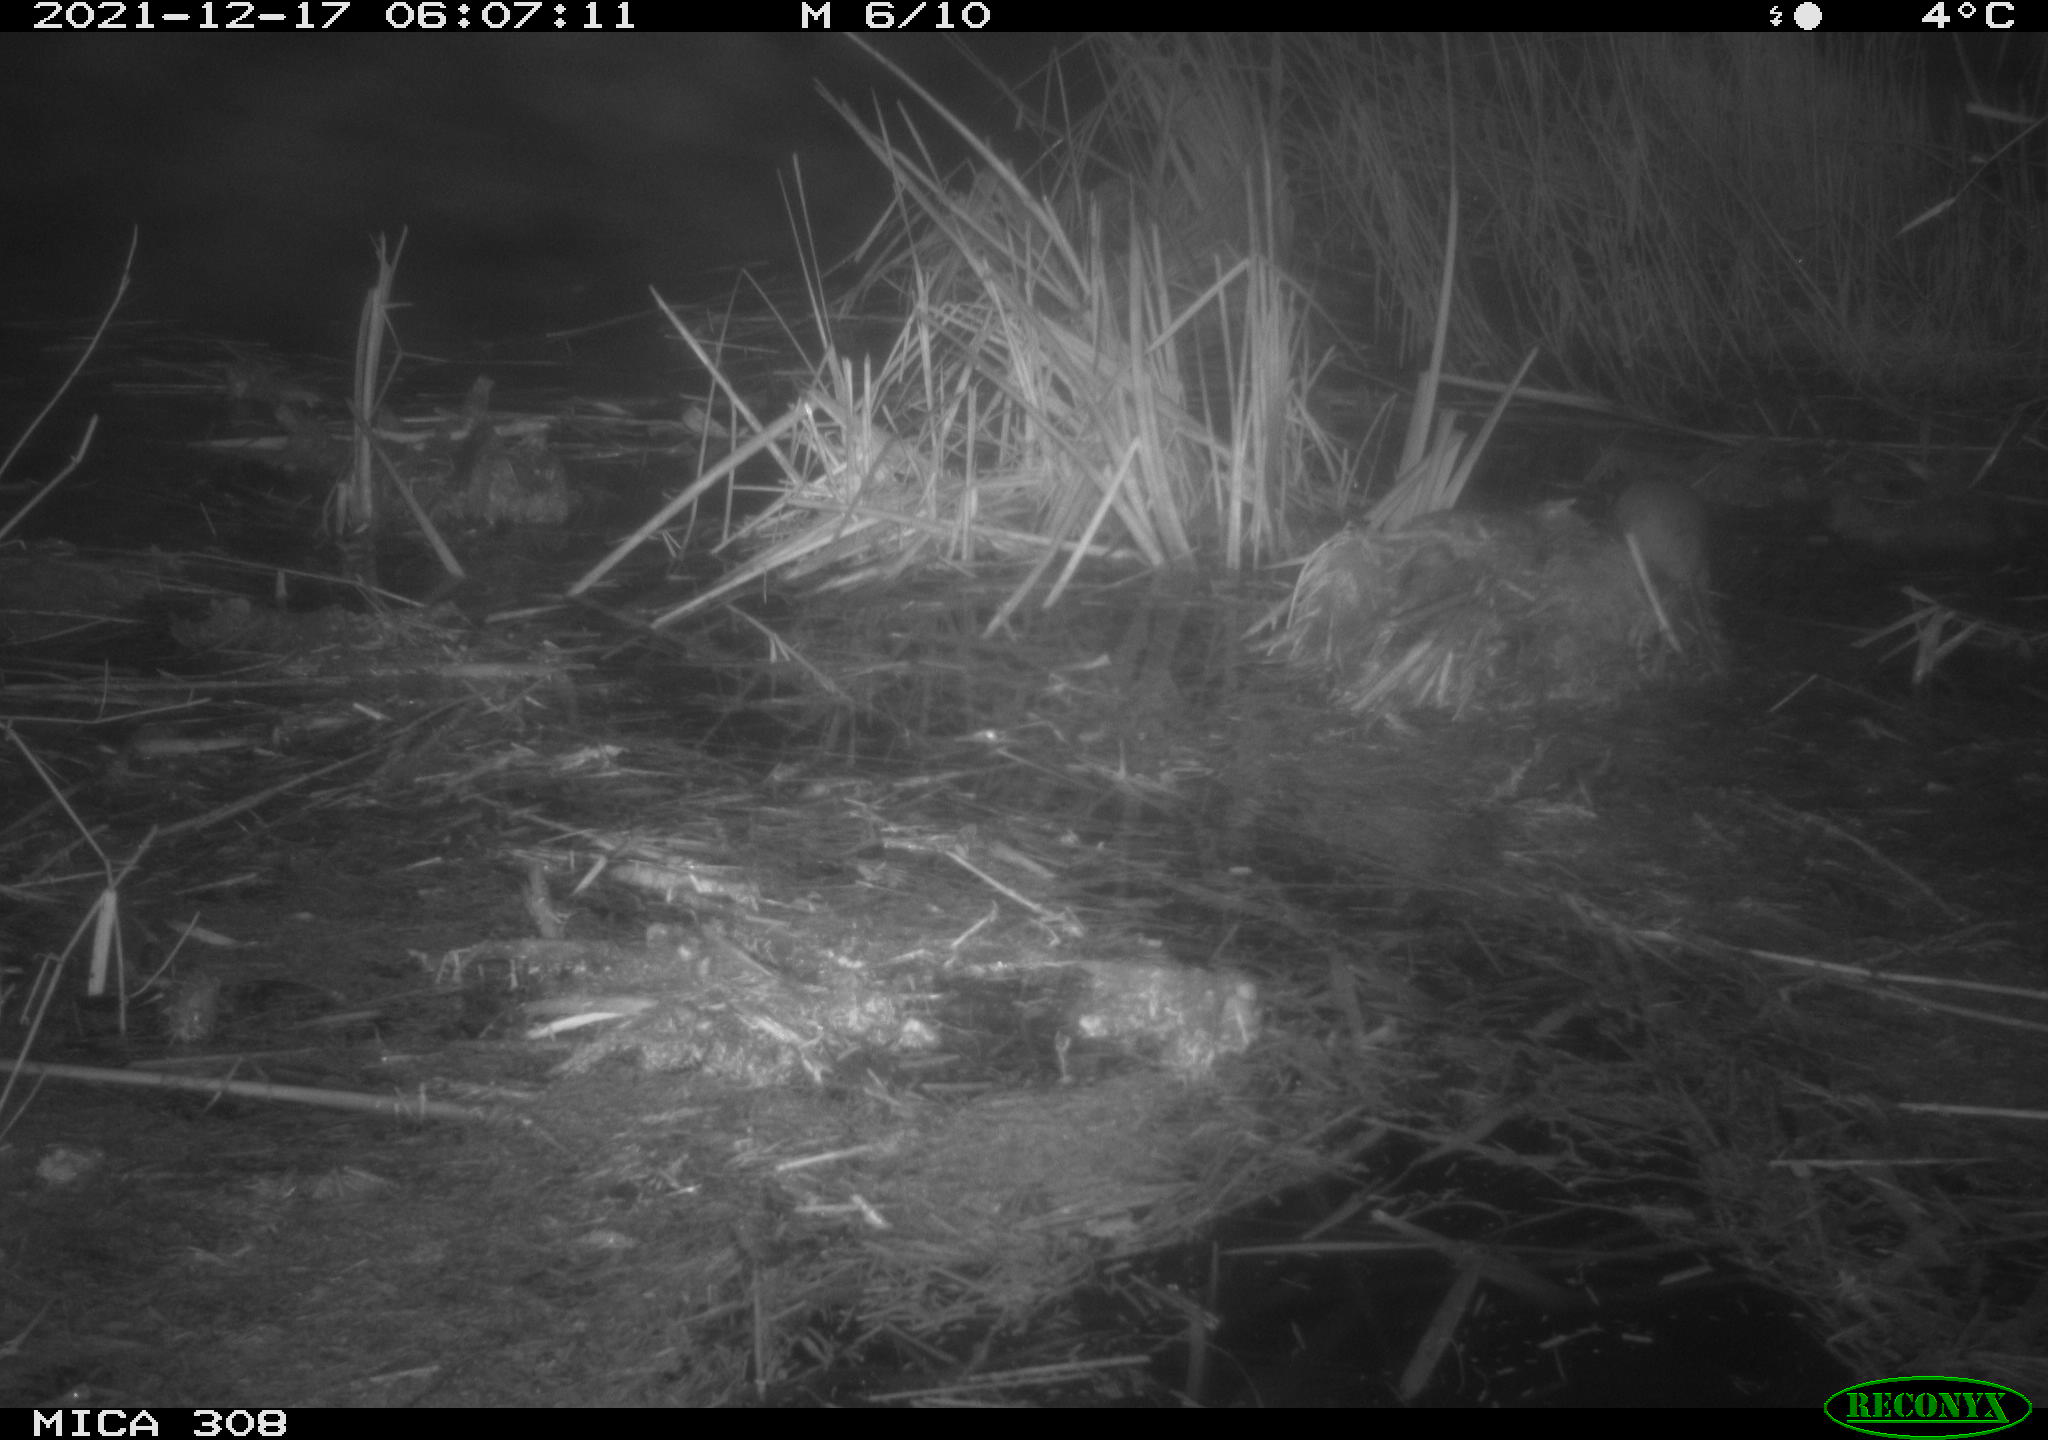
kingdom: Animalia
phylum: Chordata
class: Mammalia
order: Rodentia
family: Muridae
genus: Rattus
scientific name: Rattus norvegicus
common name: Brown rat
